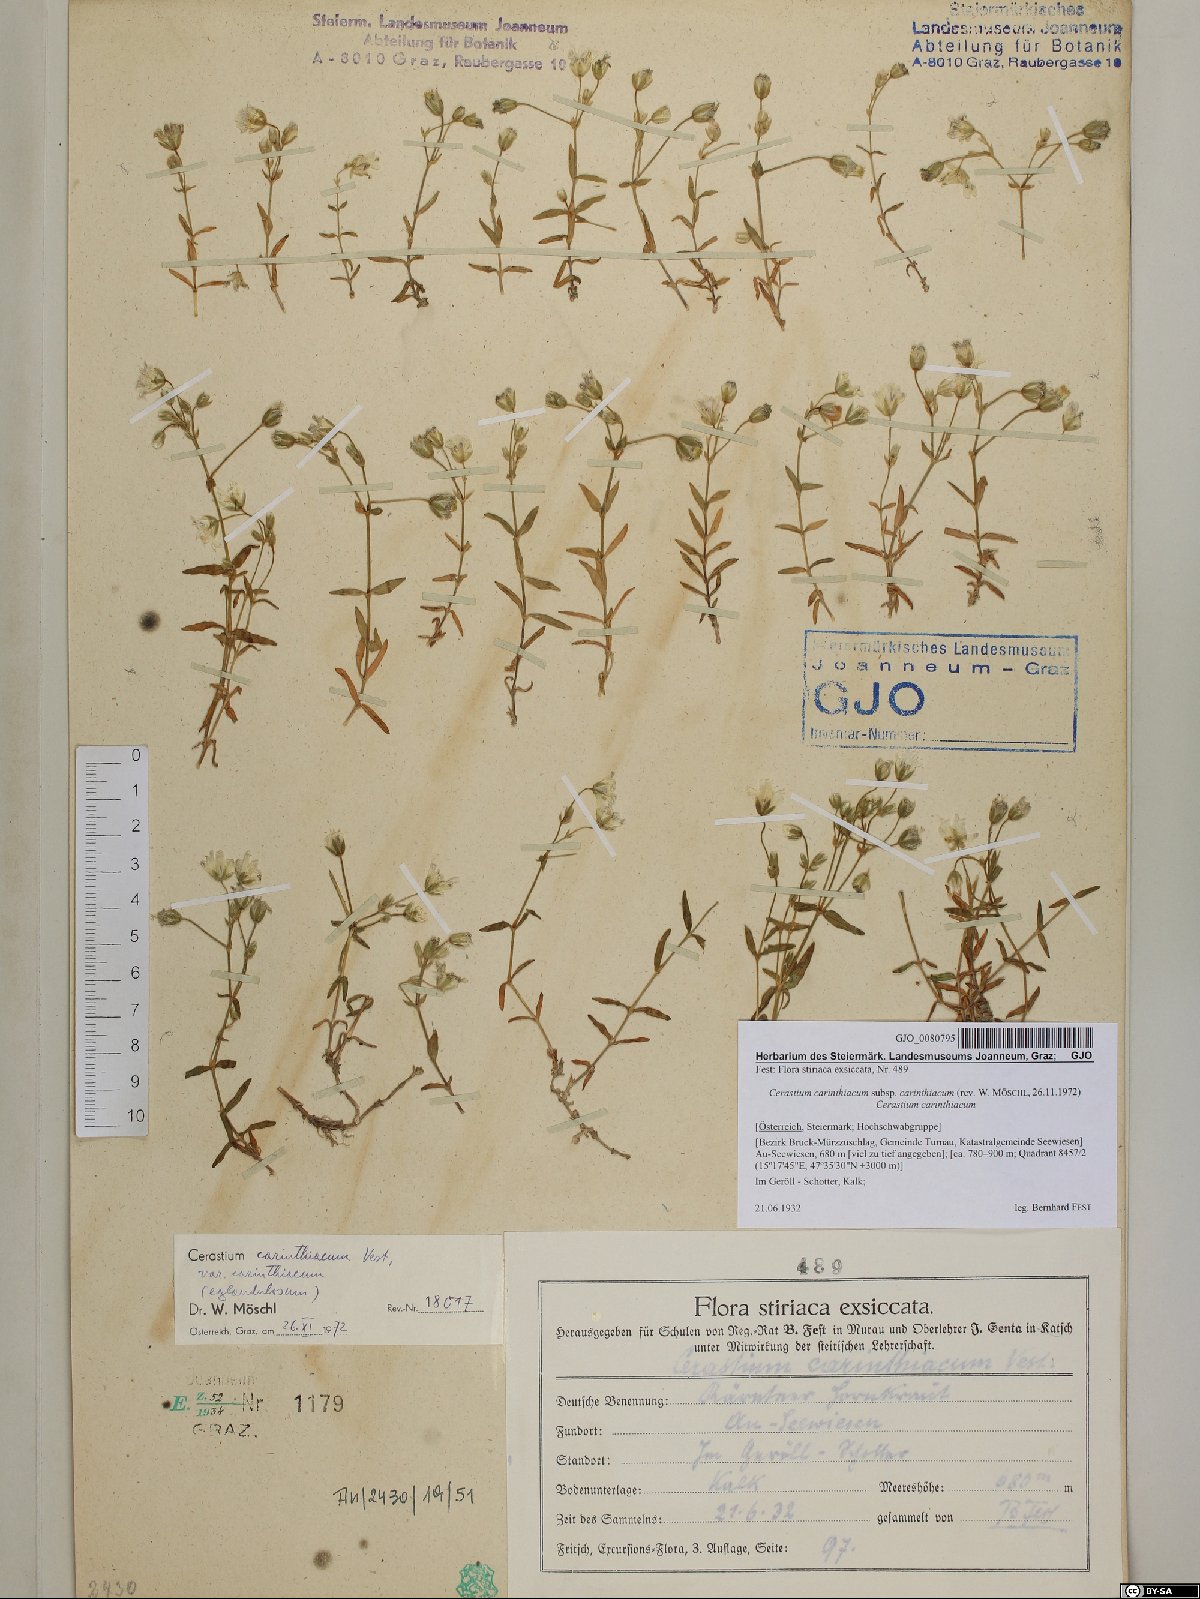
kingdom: Plantae
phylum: Tracheophyta
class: Magnoliopsida
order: Caryophyllales
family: Caryophyllaceae
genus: Cerastium
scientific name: Cerastium carinthiacum
